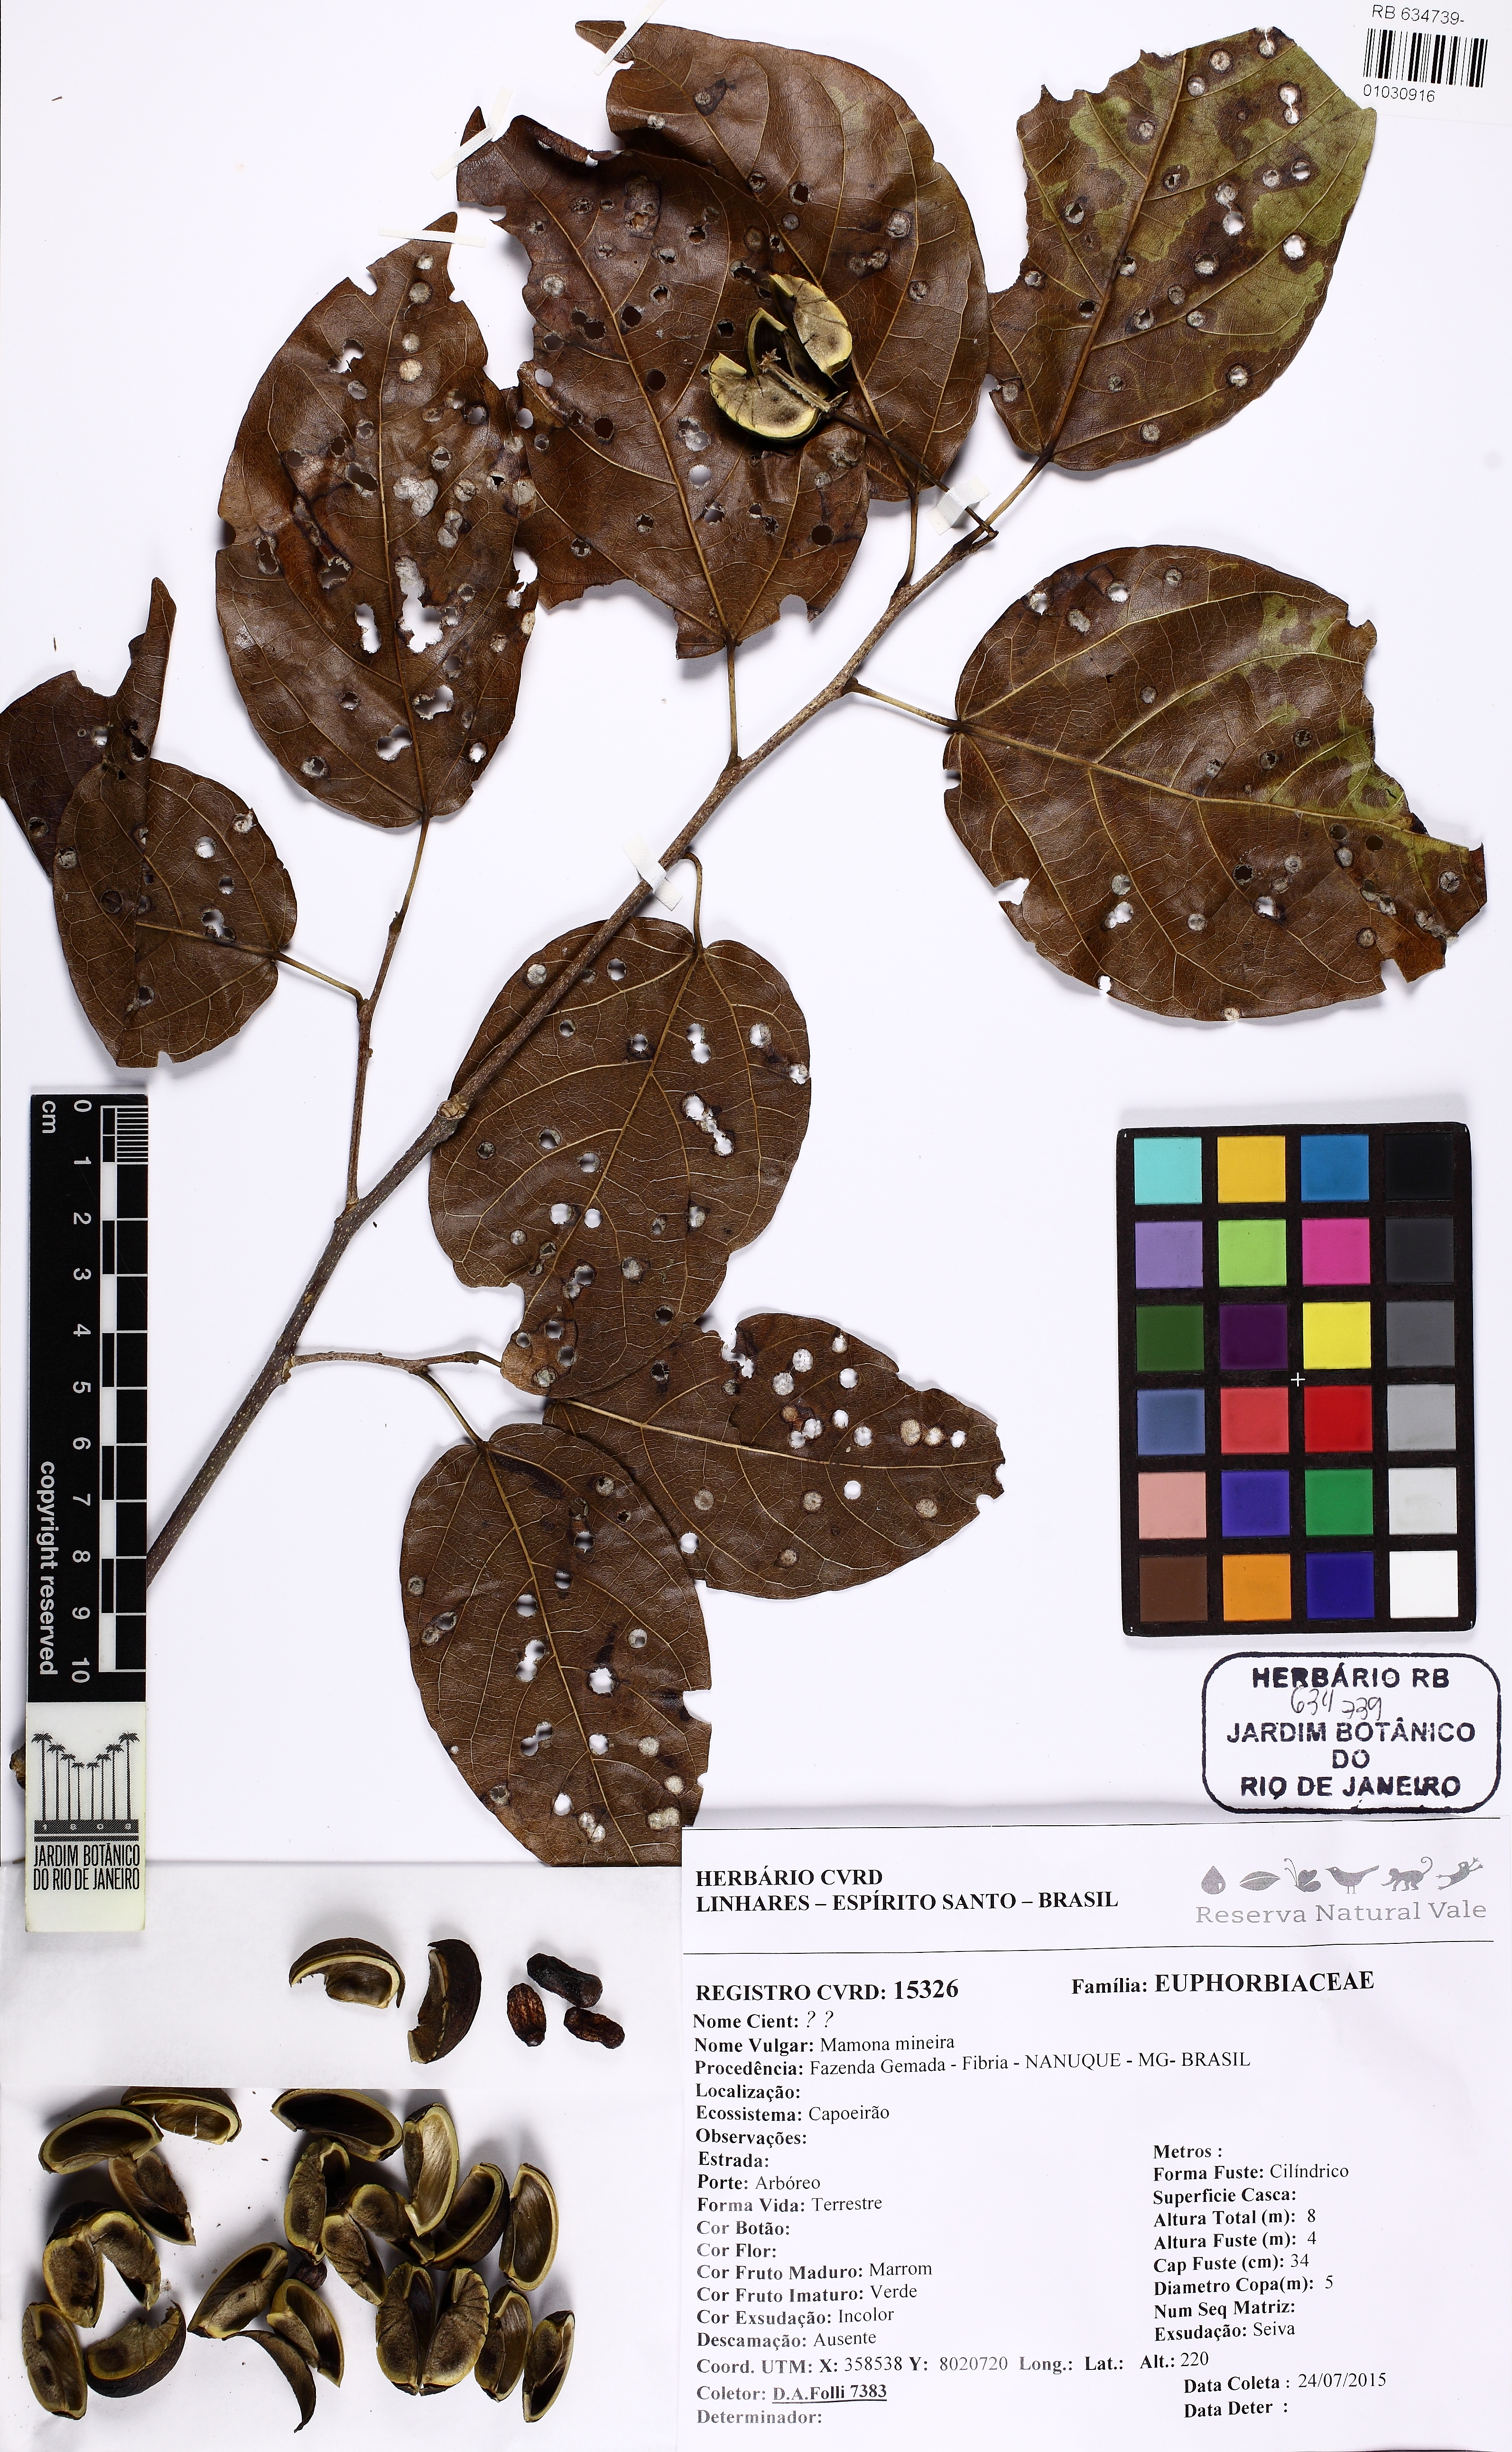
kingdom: Plantae
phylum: Tracheophyta
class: Magnoliopsida
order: Malpighiales
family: Euphorbiaceae
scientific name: Euphorbiaceae
